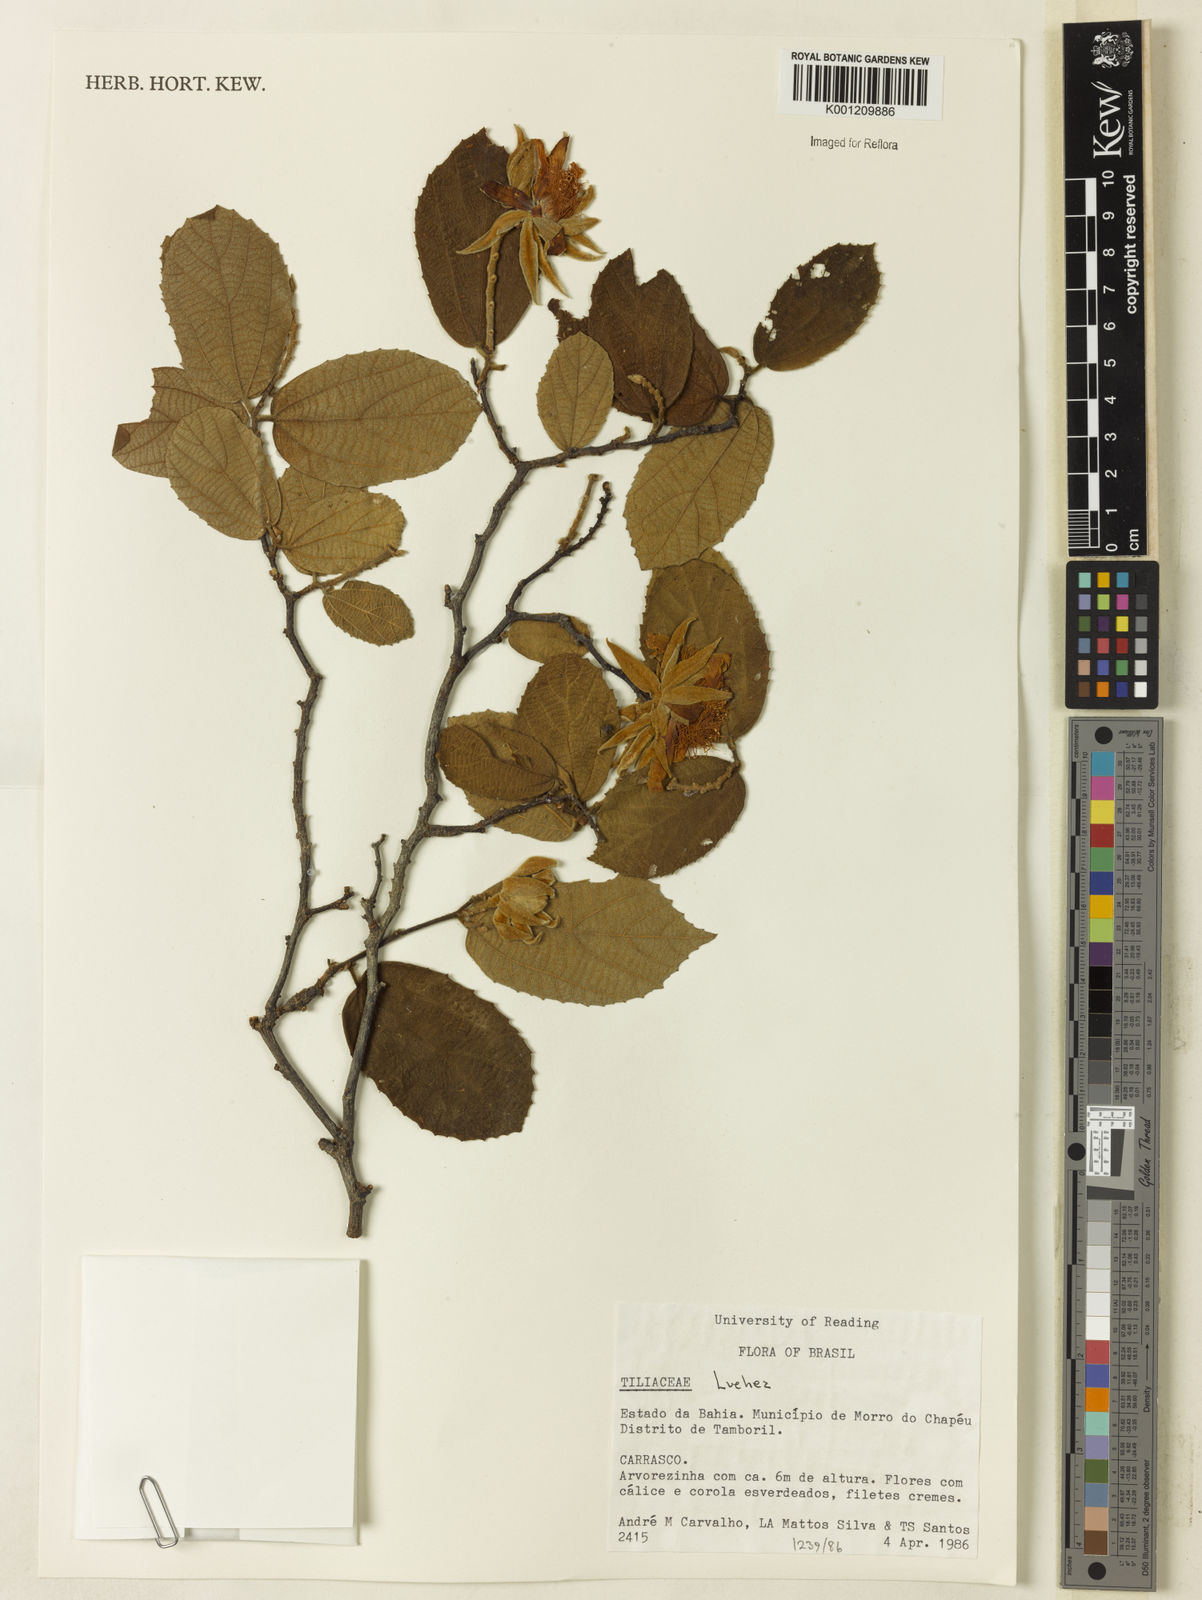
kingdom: Plantae
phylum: Tracheophyta
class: Magnoliopsida
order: Malvales
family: Malvaceae
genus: Luehea
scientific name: Luehea
